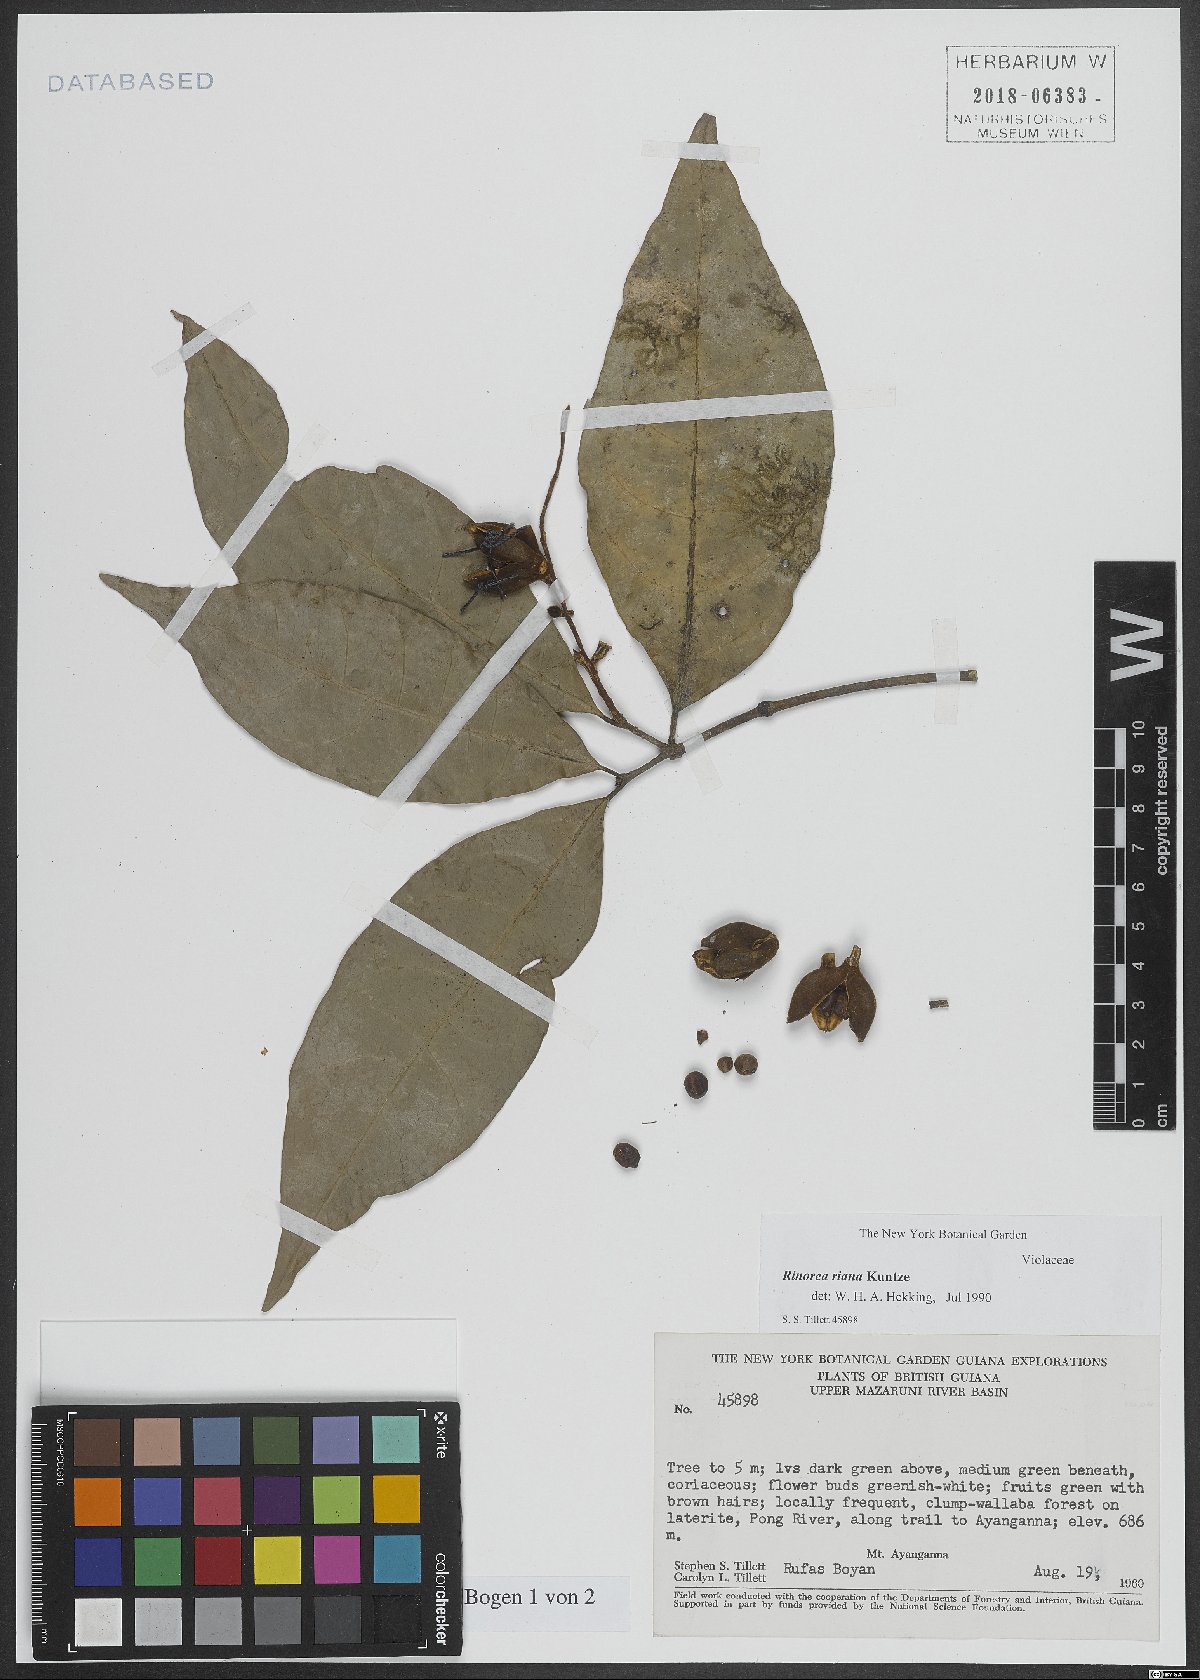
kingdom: Plantae
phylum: Tracheophyta
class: Magnoliopsida
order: Malpighiales
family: Violaceae
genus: Rinorea
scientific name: Rinorea
